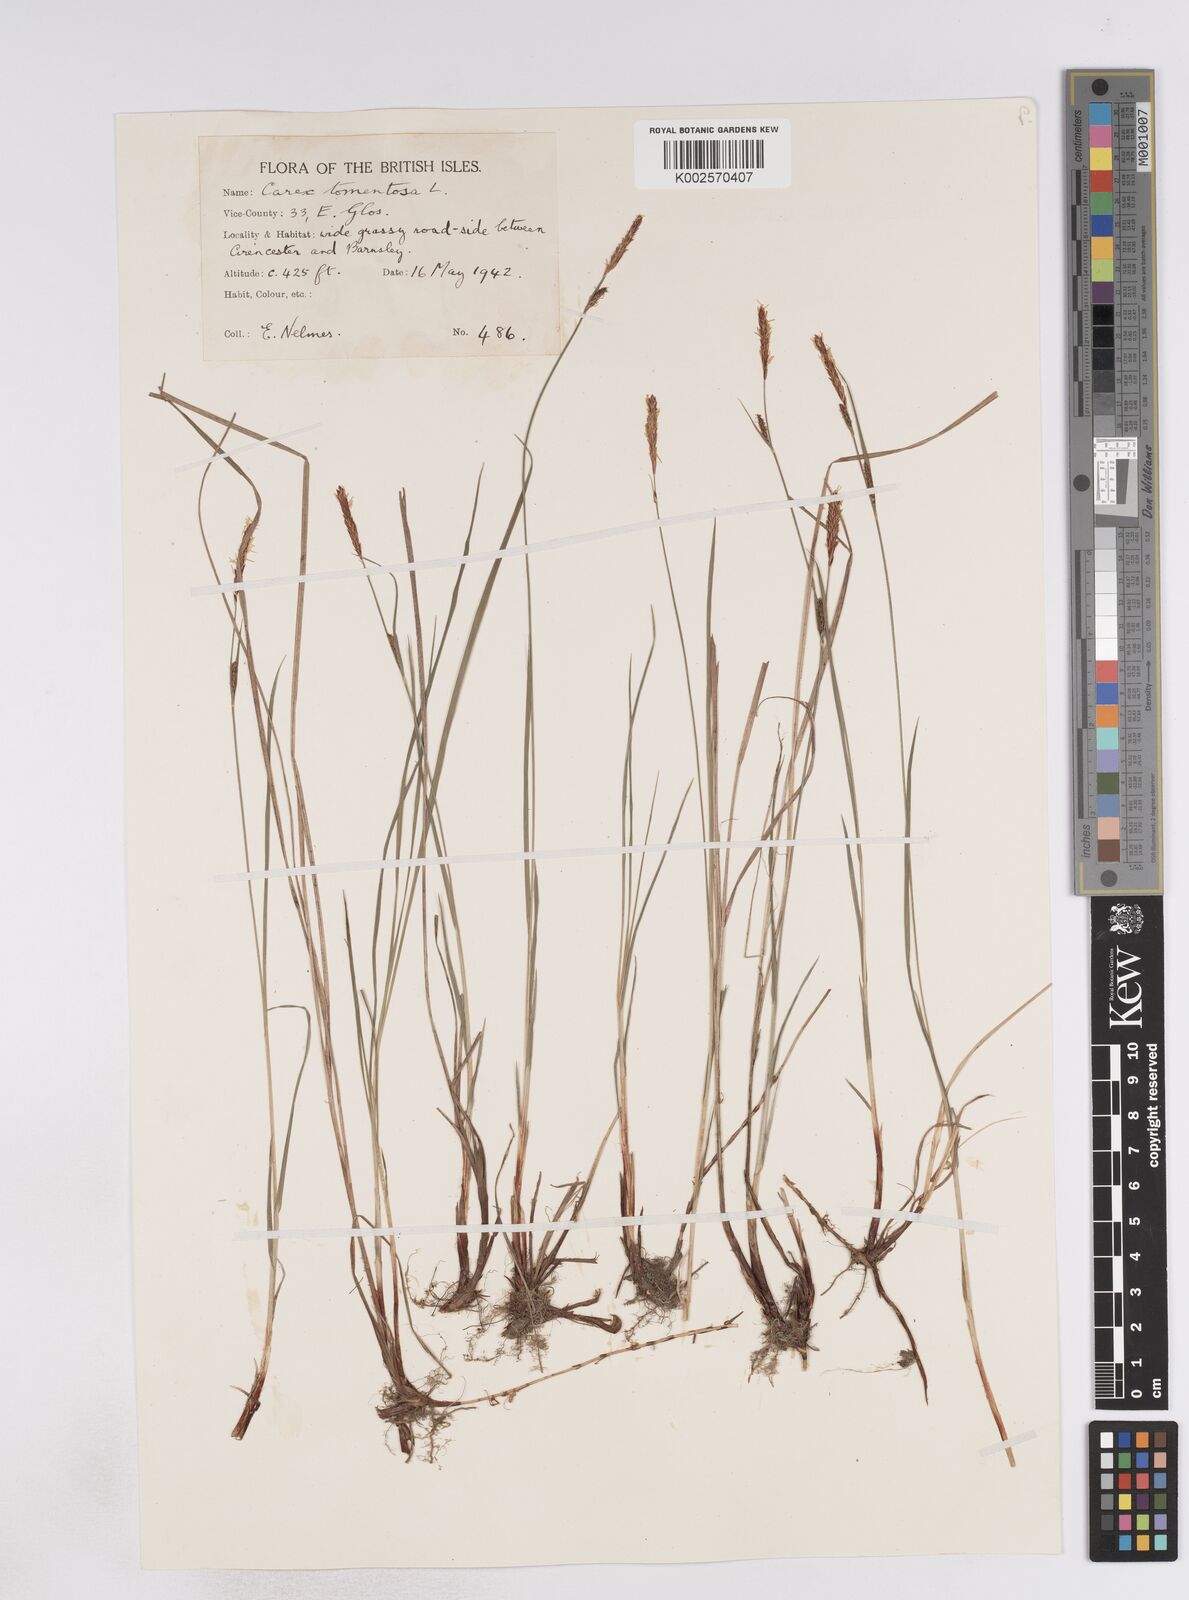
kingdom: Plantae
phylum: Tracheophyta
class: Liliopsida
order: Poales
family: Cyperaceae
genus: Carex
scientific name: Carex montana
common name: Soft-leaved sedge
